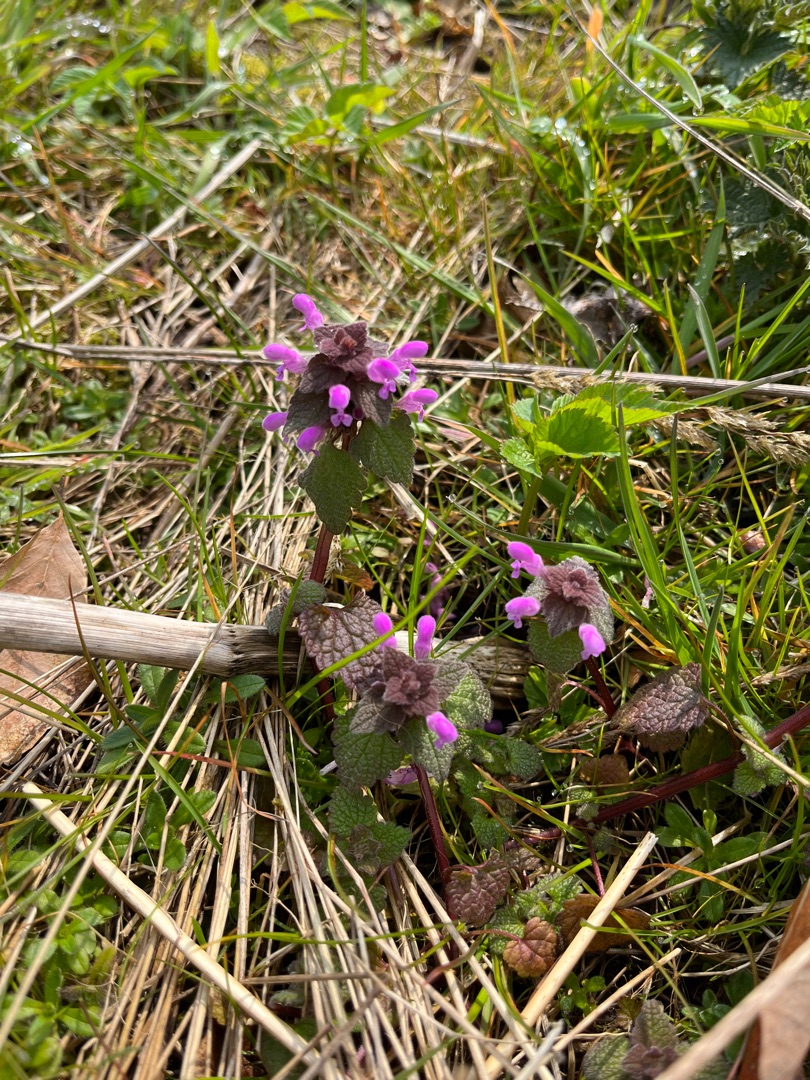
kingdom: Plantae
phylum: Tracheophyta
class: Magnoliopsida
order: Lamiales
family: Lamiaceae
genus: Lamium
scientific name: Lamium purpureum
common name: Rød tvetand
